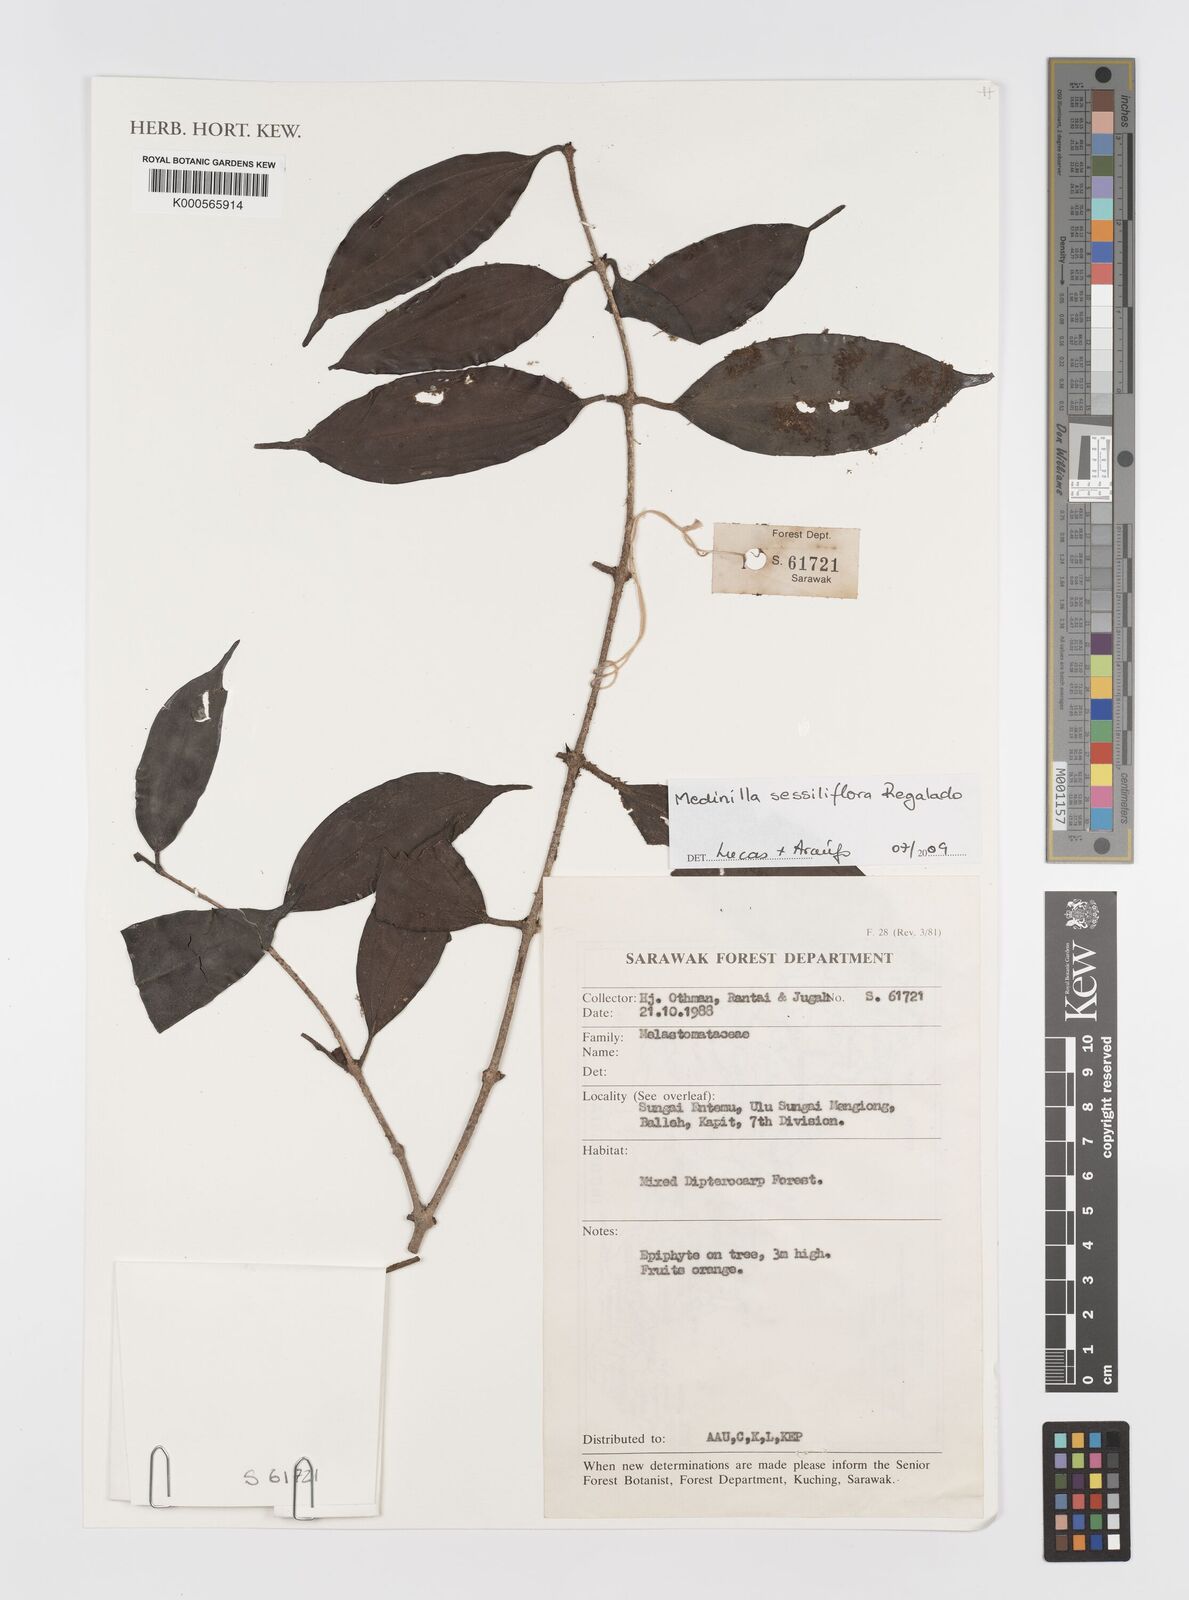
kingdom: Plantae
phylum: Tracheophyta
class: Magnoliopsida
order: Myrtales
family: Melastomataceae
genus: Medinilla
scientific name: Medinilla sessiliflora
